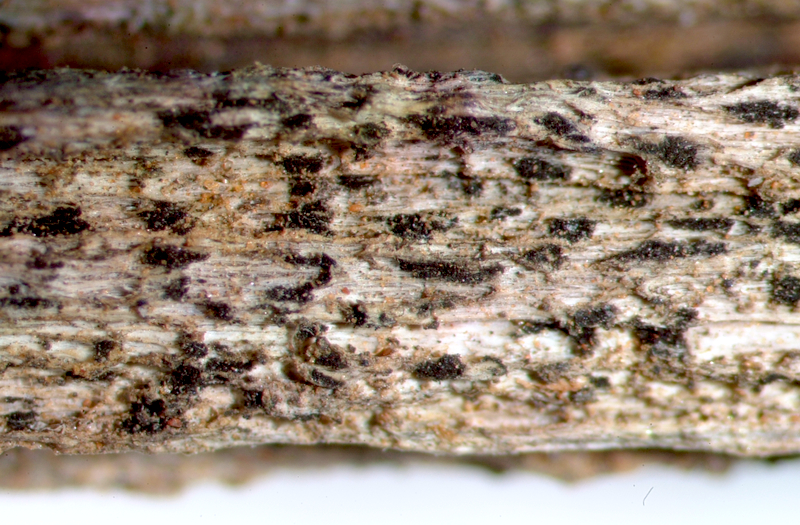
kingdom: Fungi
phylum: Ascomycota
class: Lecanoromycetes
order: Caliciales
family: Physciaceae
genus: Hyperphyscia
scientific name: Hyperphyscia syncolla
